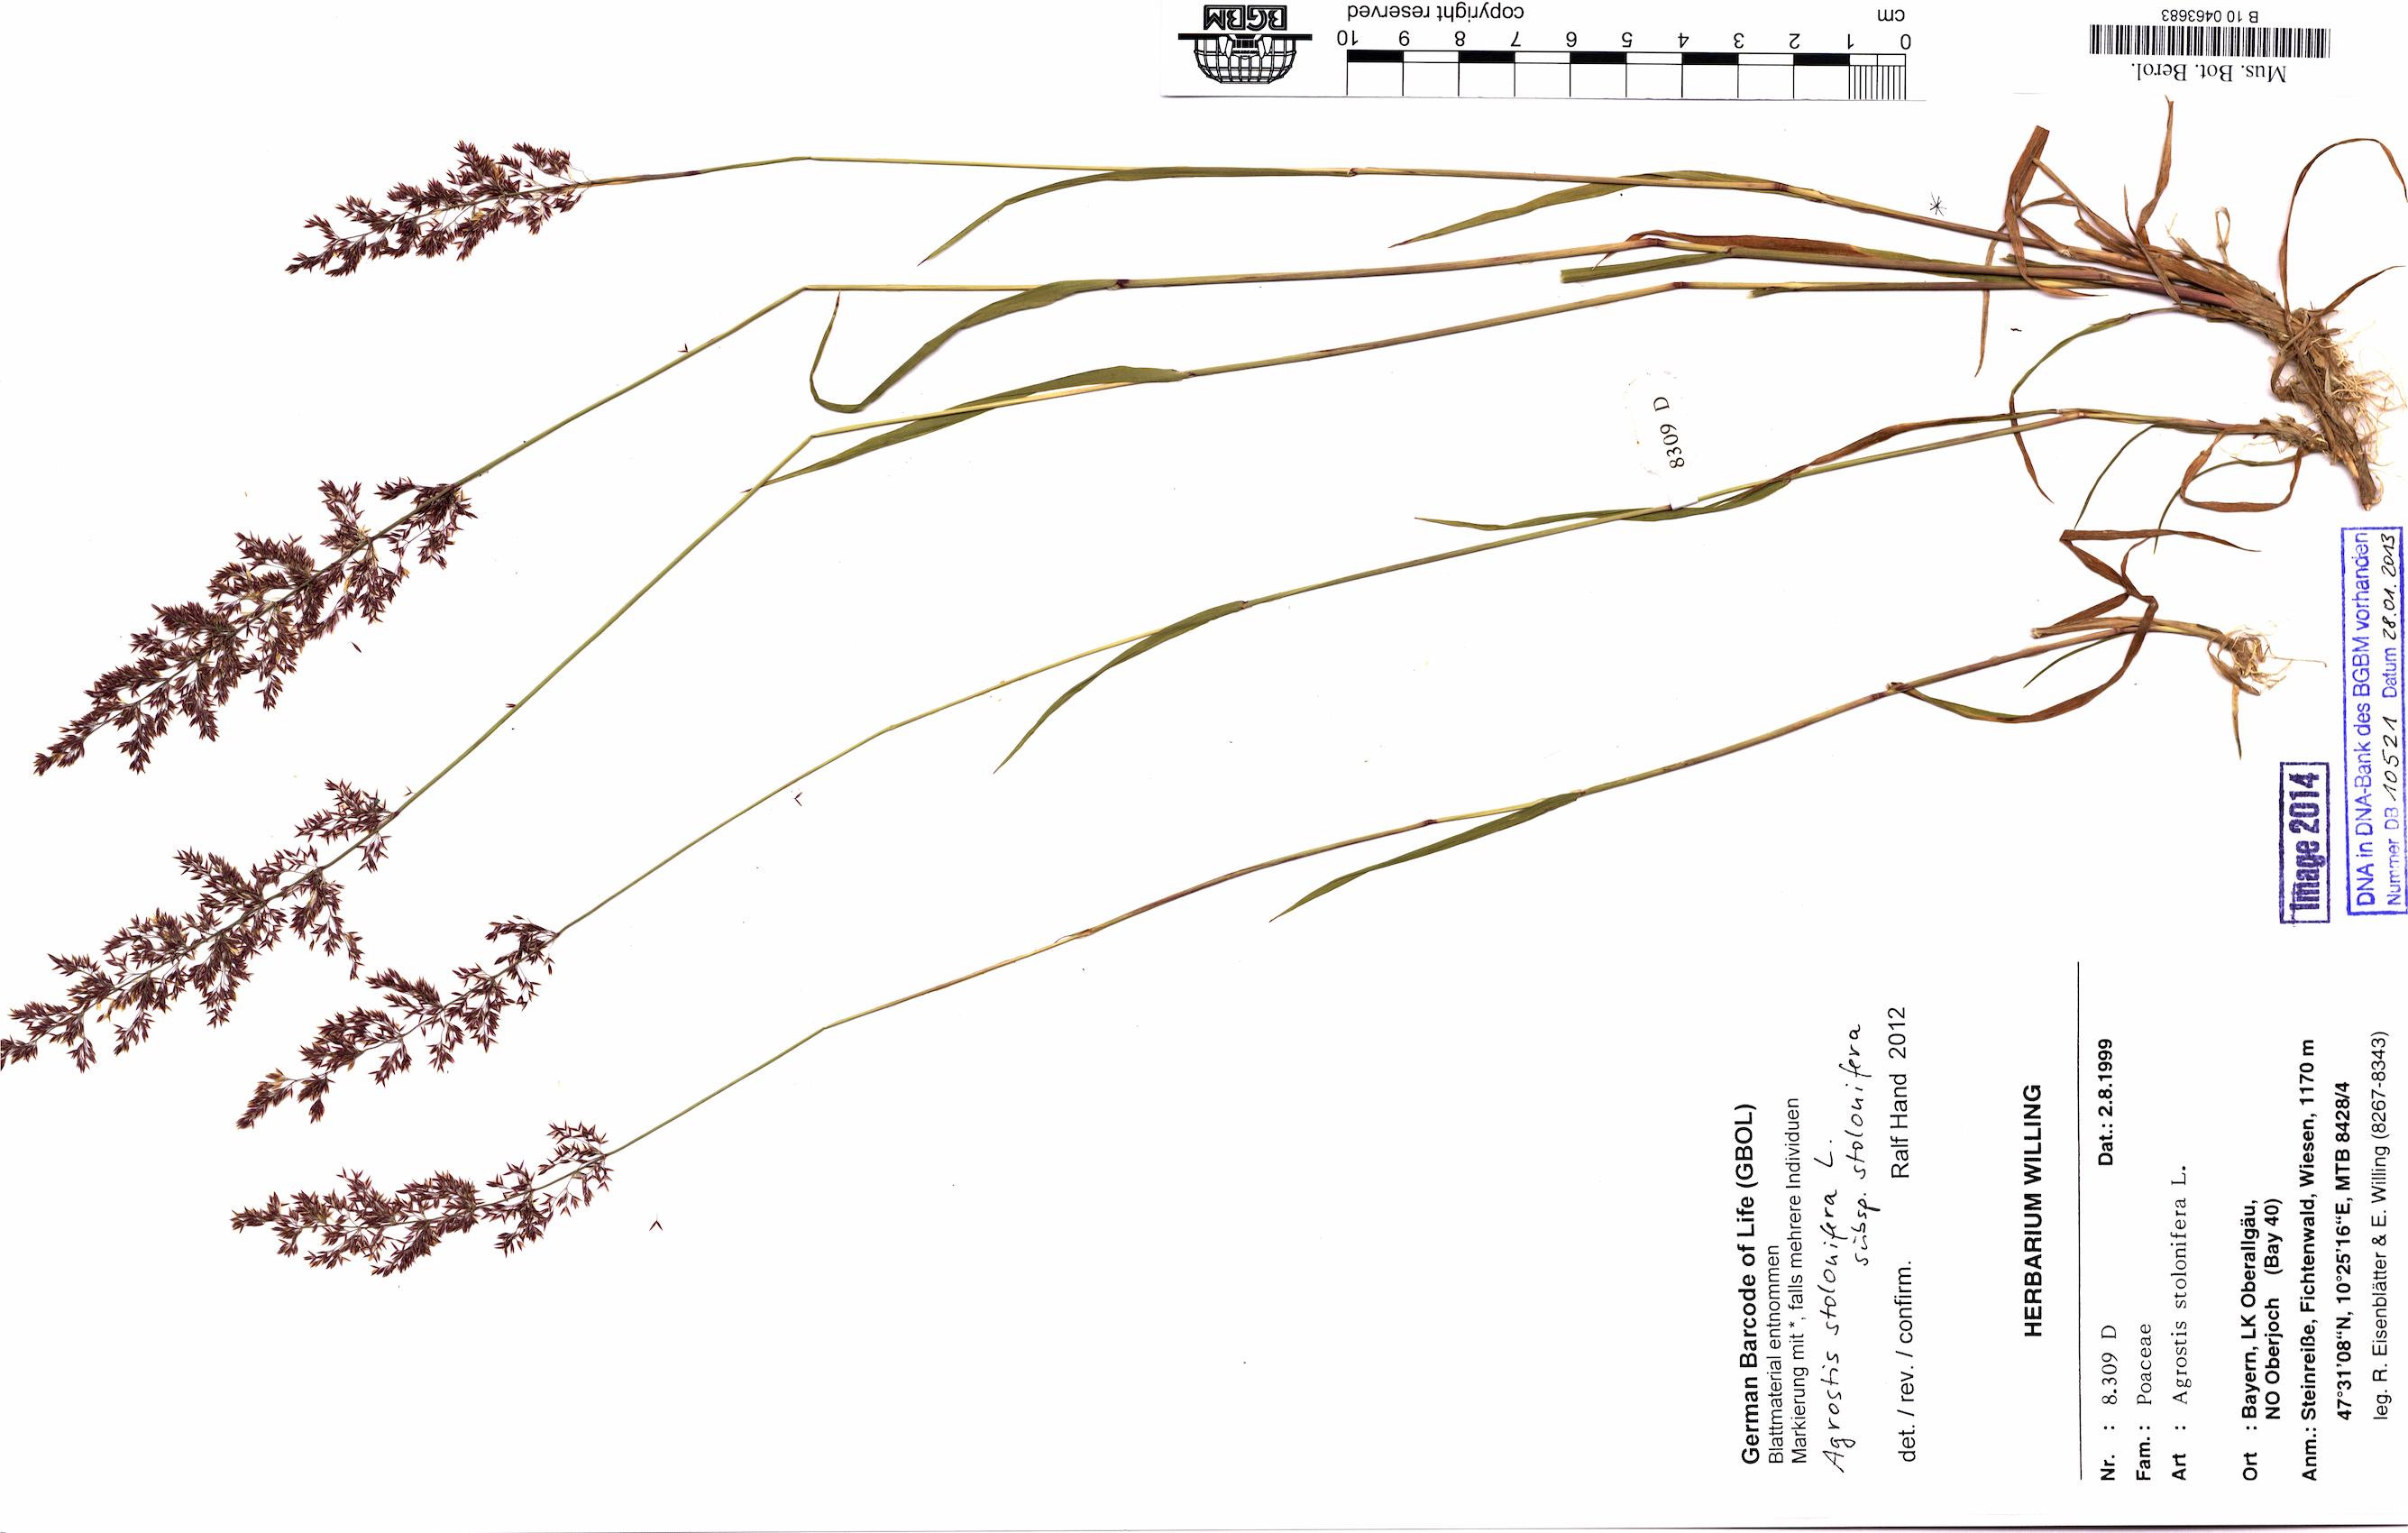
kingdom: Plantae
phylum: Tracheophyta
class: Liliopsida
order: Poales
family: Poaceae
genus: Agrostis
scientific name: Agrostis stolonifera
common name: Creeping bentgrass
